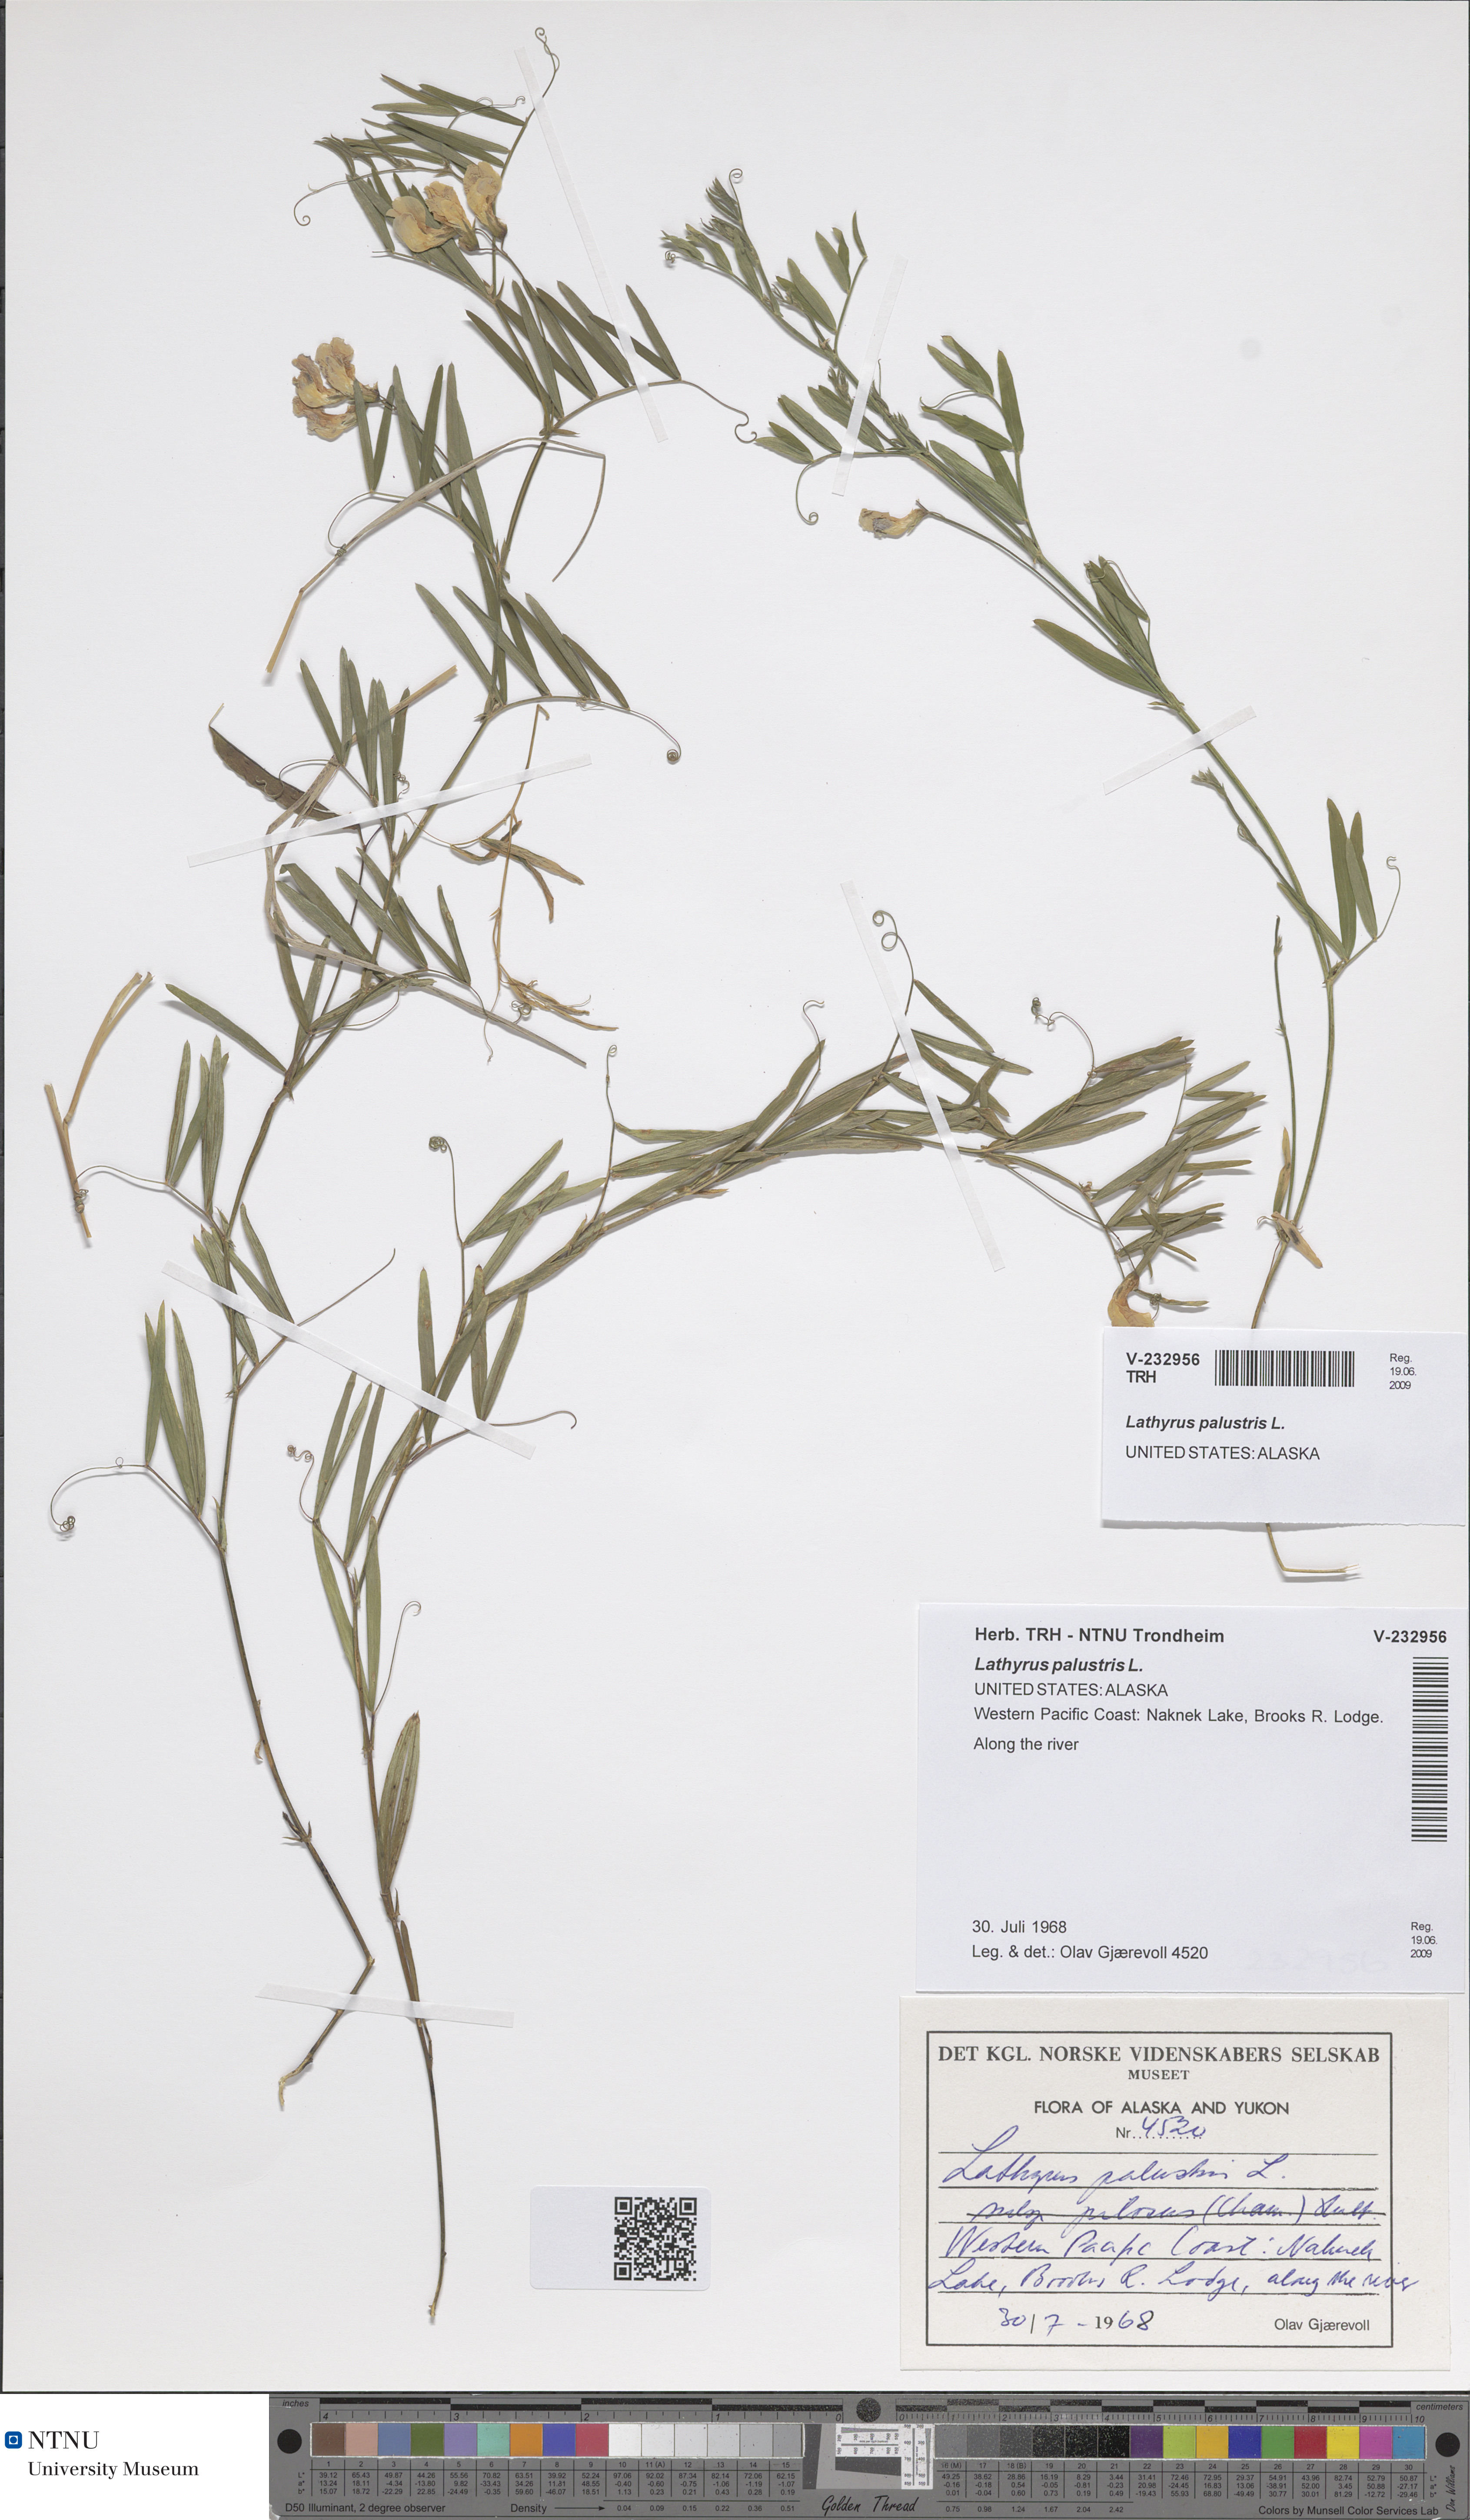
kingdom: Plantae
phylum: Tracheophyta
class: Magnoliopsida
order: Fabales
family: Fabaceae
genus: Lathyrus
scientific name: Lathyrus palustris
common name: Marsh pea
